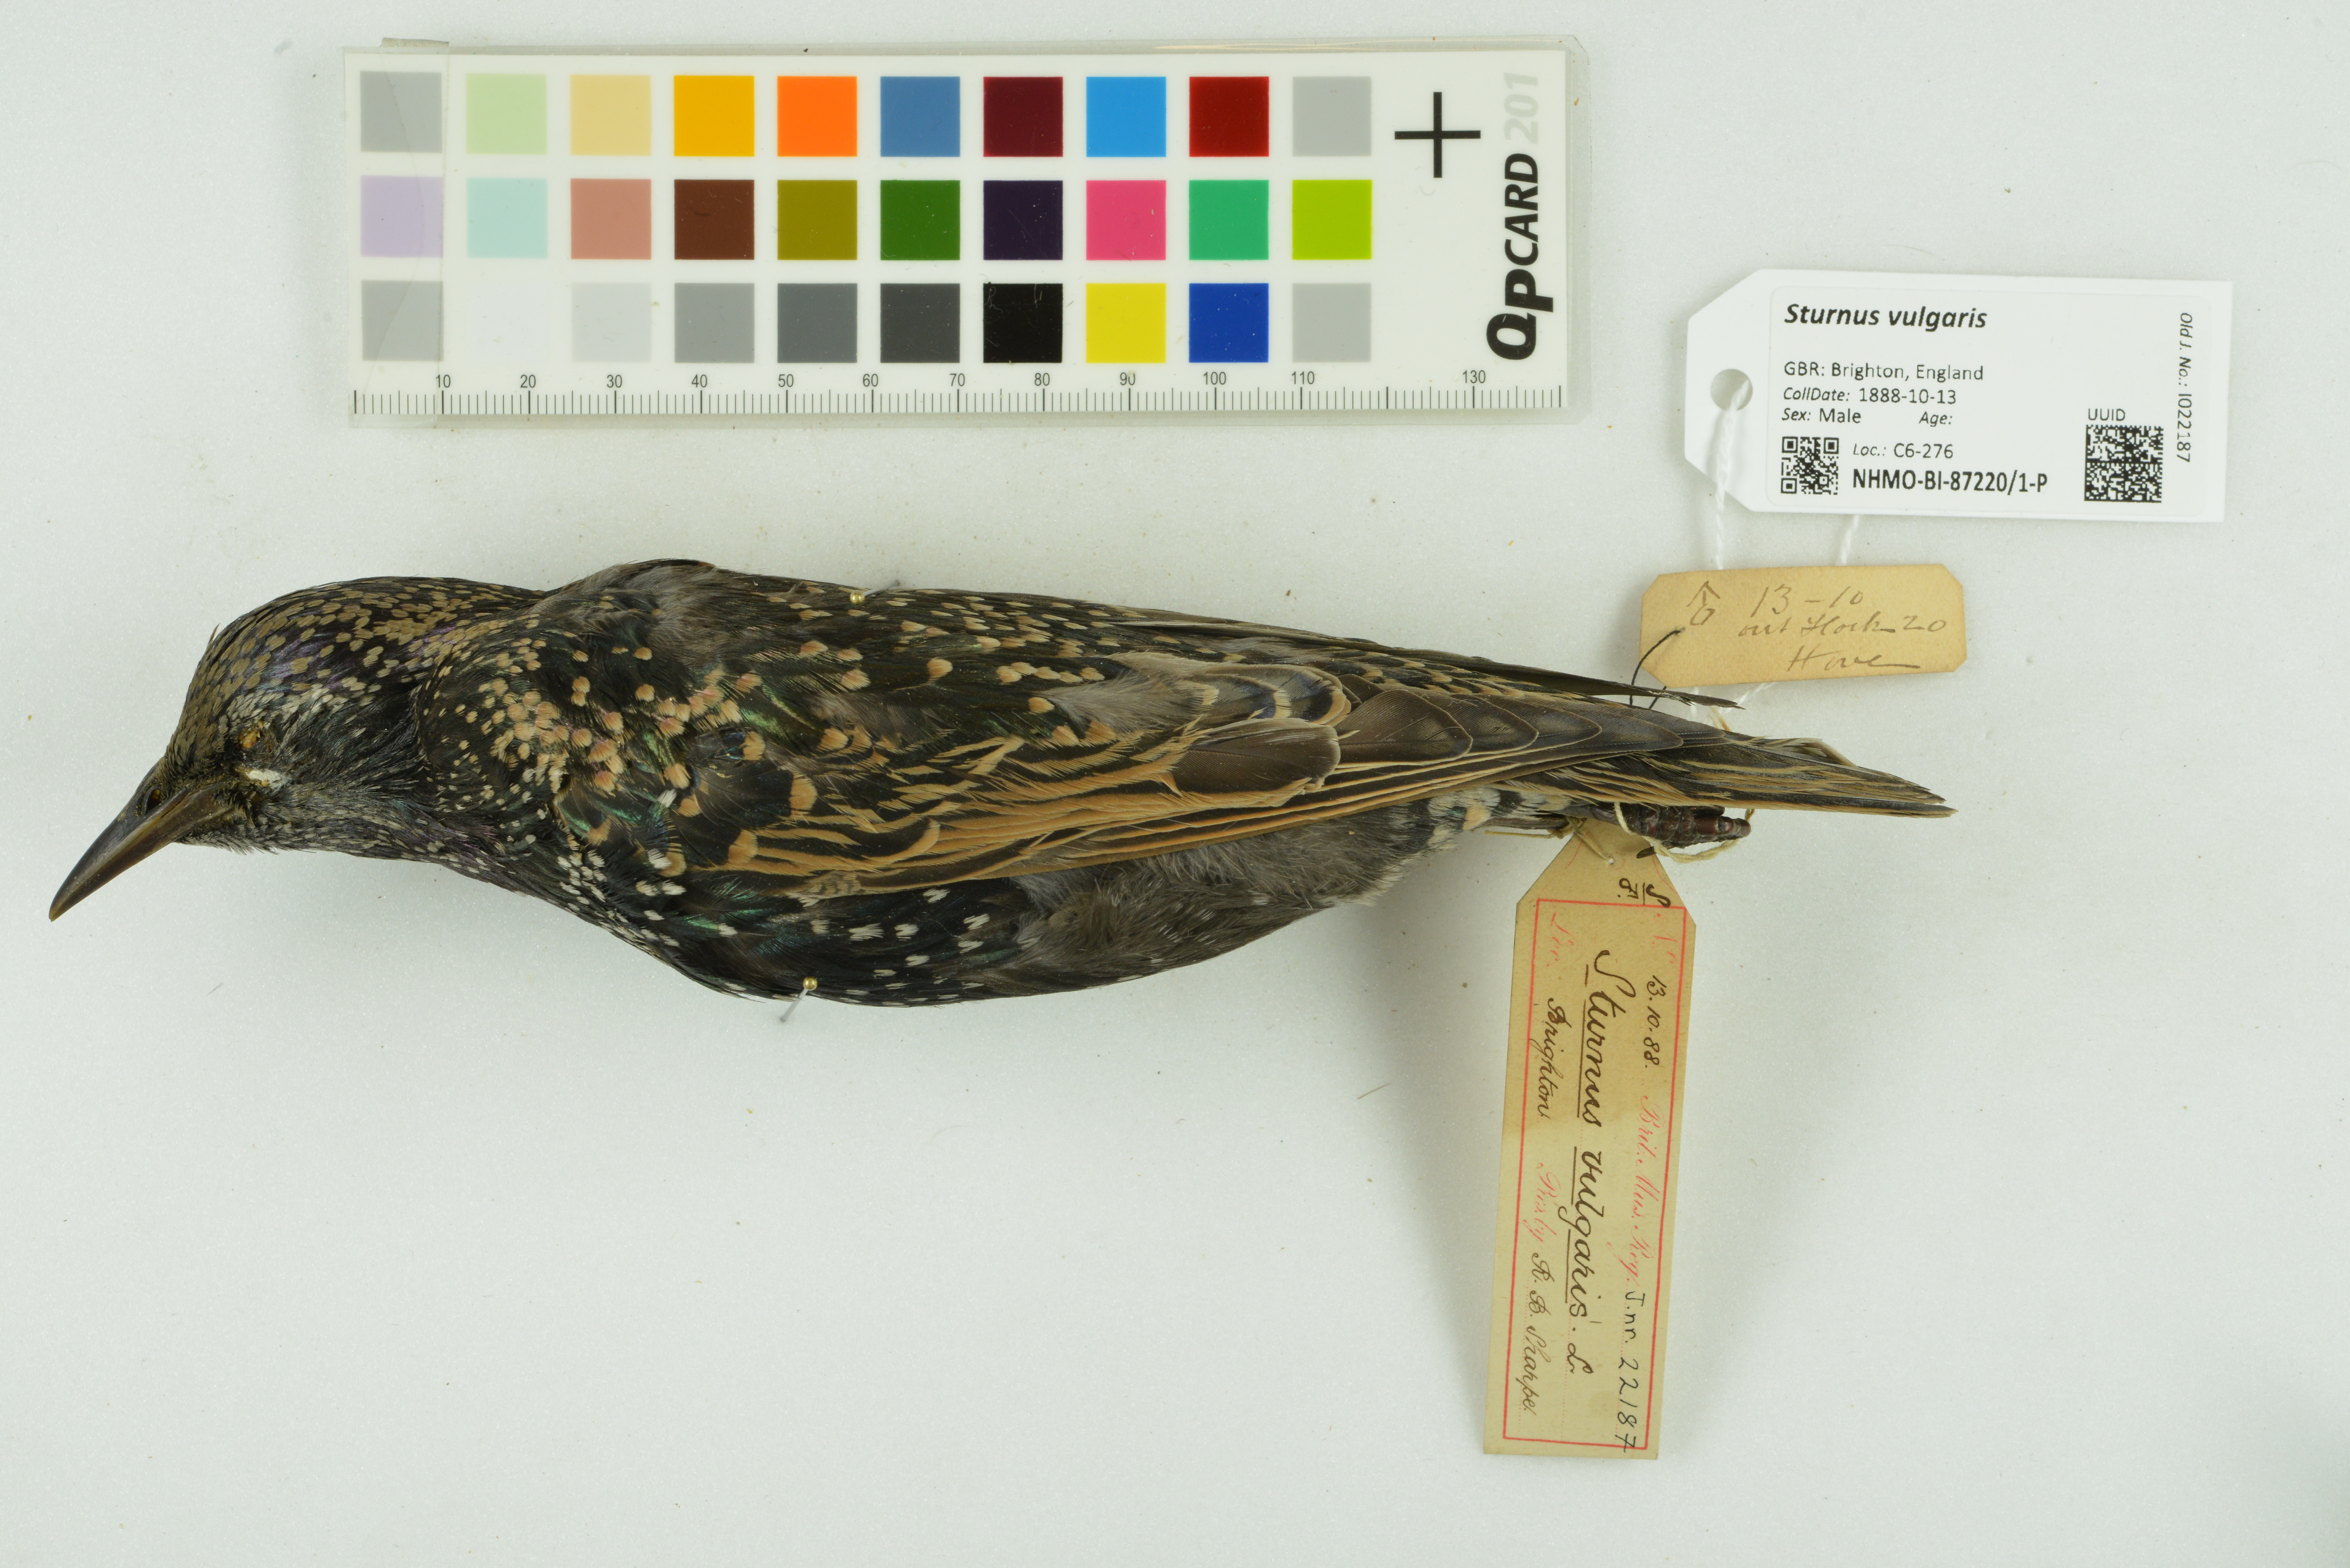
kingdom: Animalia
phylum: Chordata
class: Aves
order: Passeriformes
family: Sturnidae
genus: Sturnus
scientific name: Sturnus vulgaris
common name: Common starling
